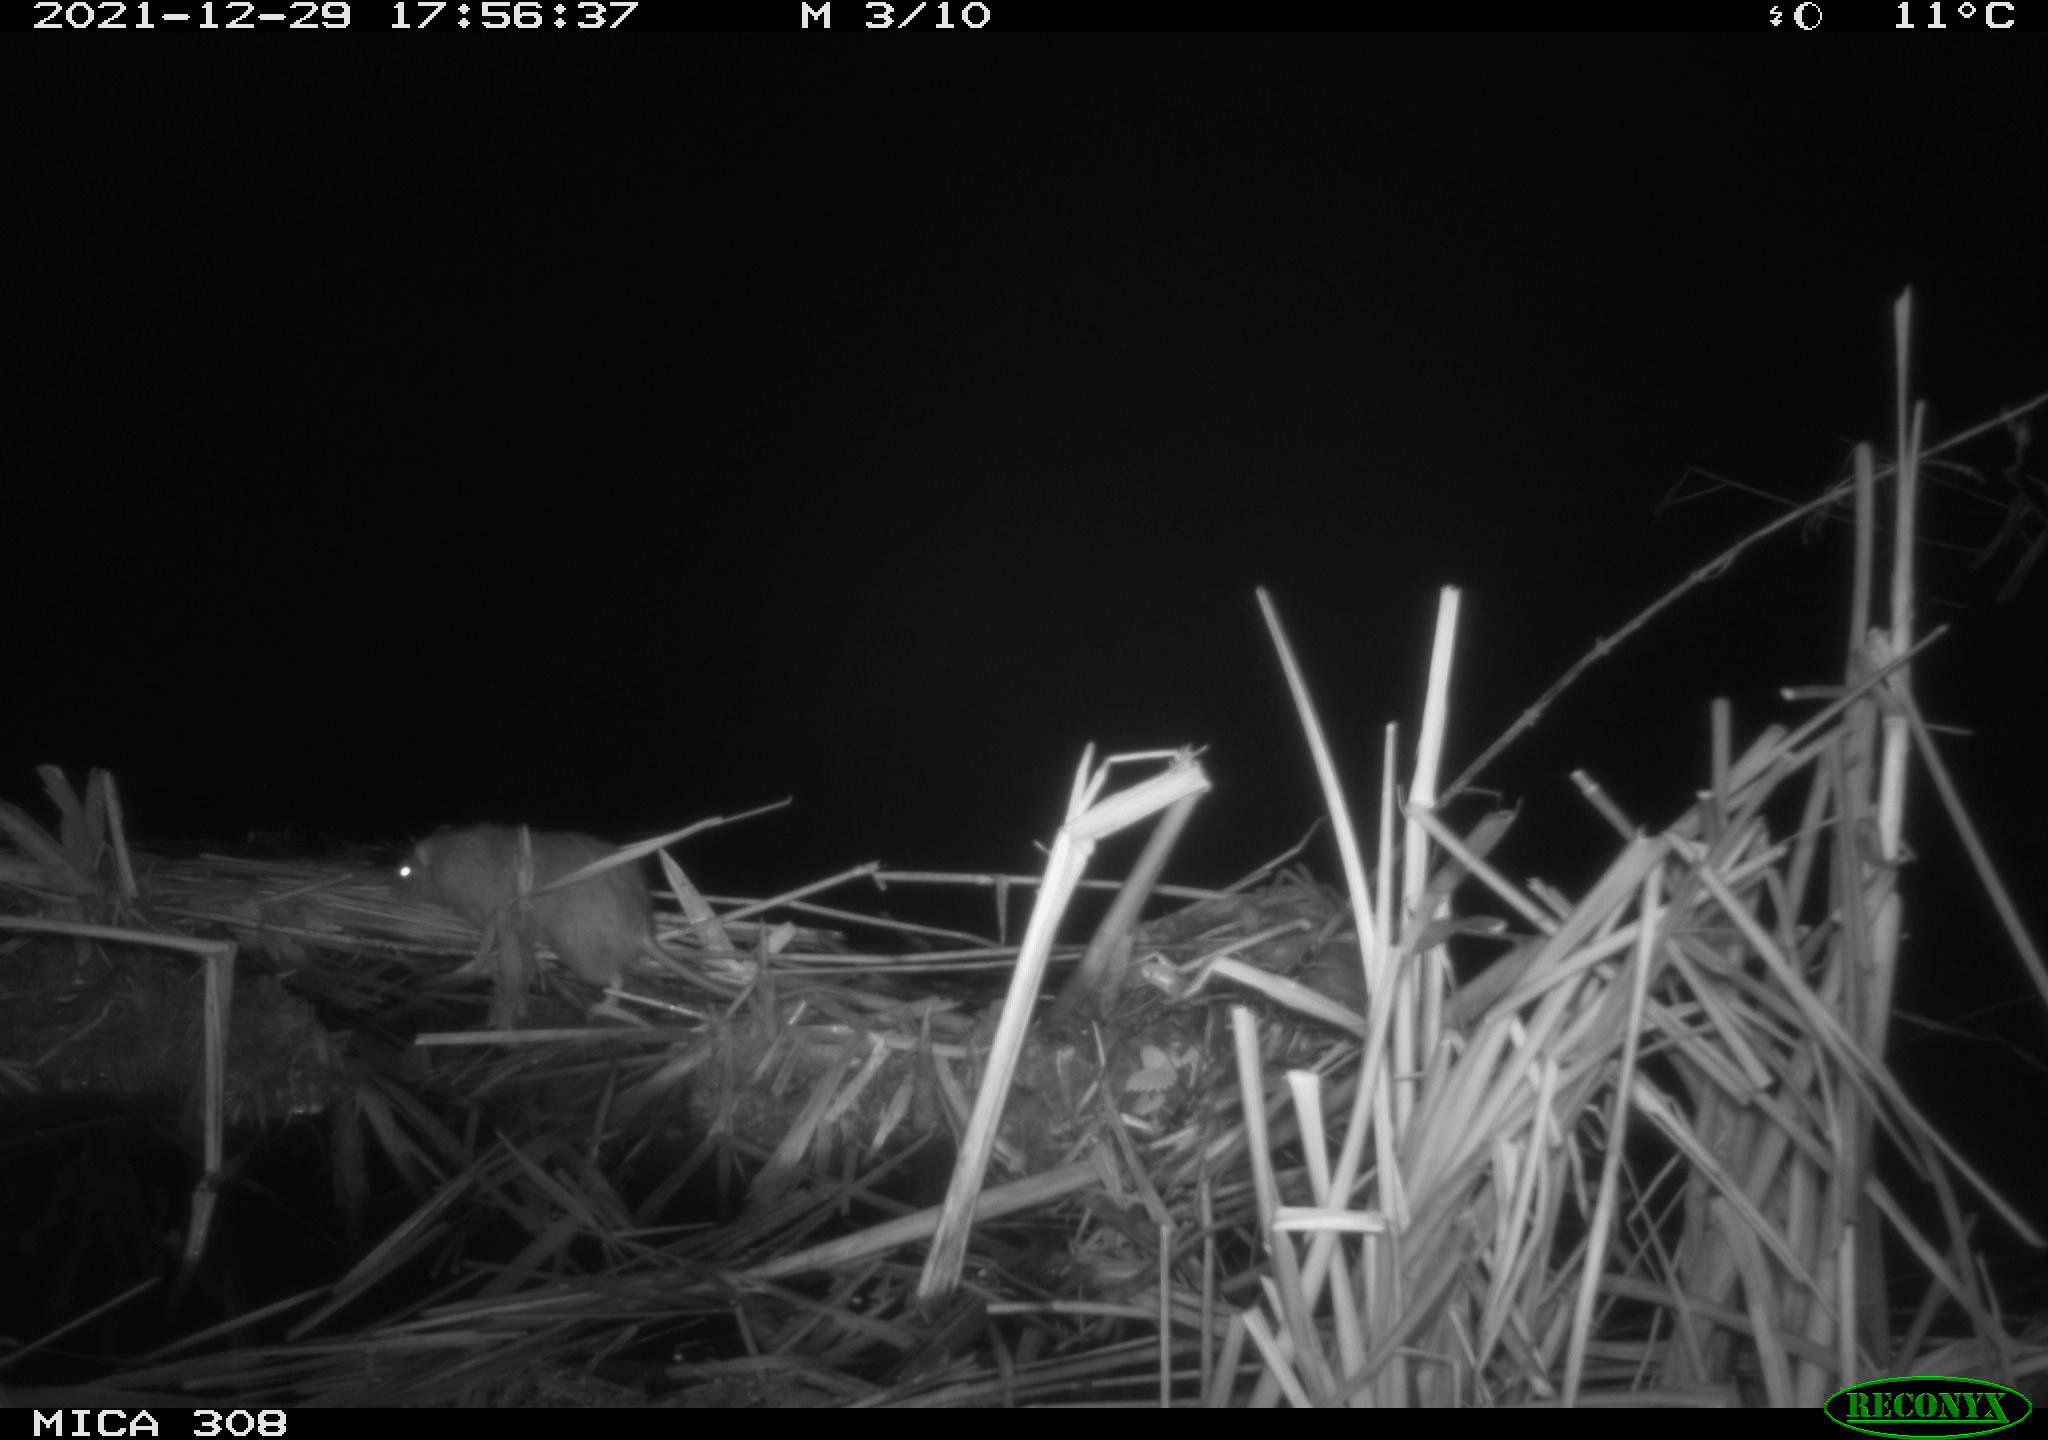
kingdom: Animalia
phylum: Chordata
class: Mammalia
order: Rodentia
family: Muridae
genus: Rattus
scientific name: Rattus norvegicus
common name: Brown rat
